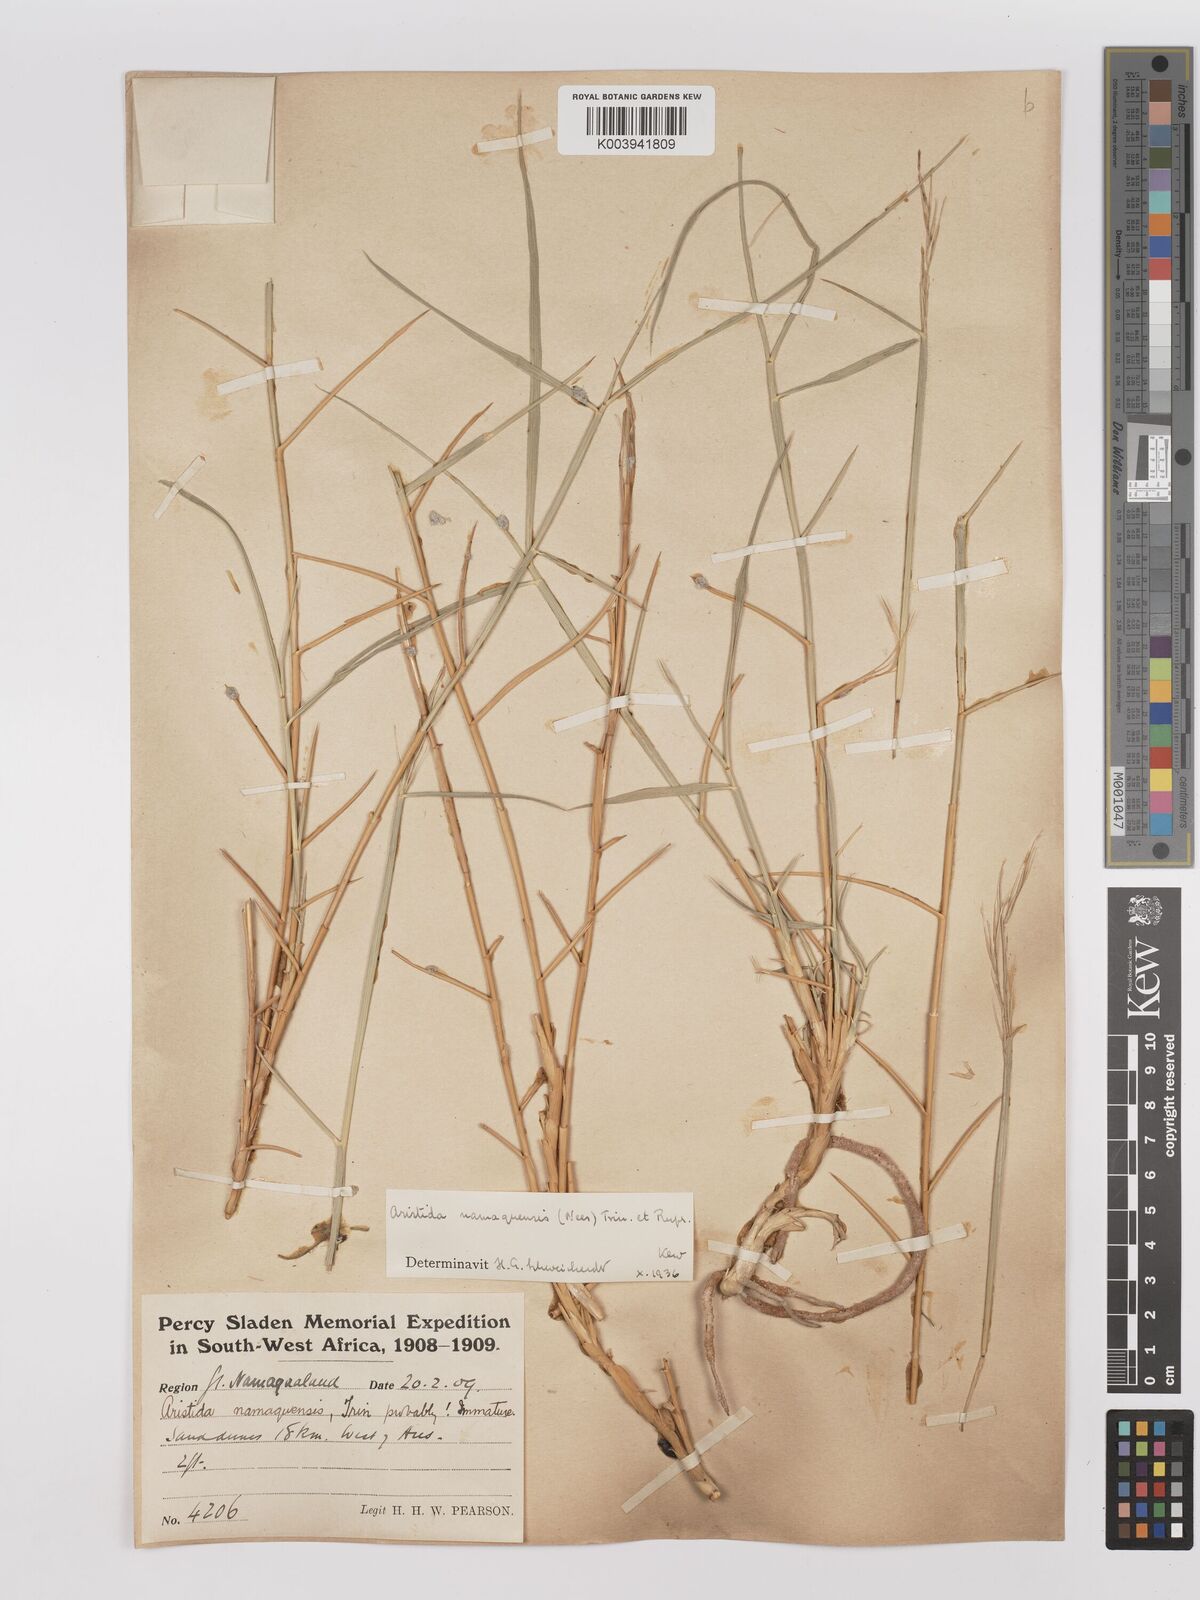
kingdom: Plantae
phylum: Tracheophyta
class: Liliopsida
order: Poales
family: Poaceae
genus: Stipagrostis
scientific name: Stipagrostis namaquensis
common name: River bushman grass
